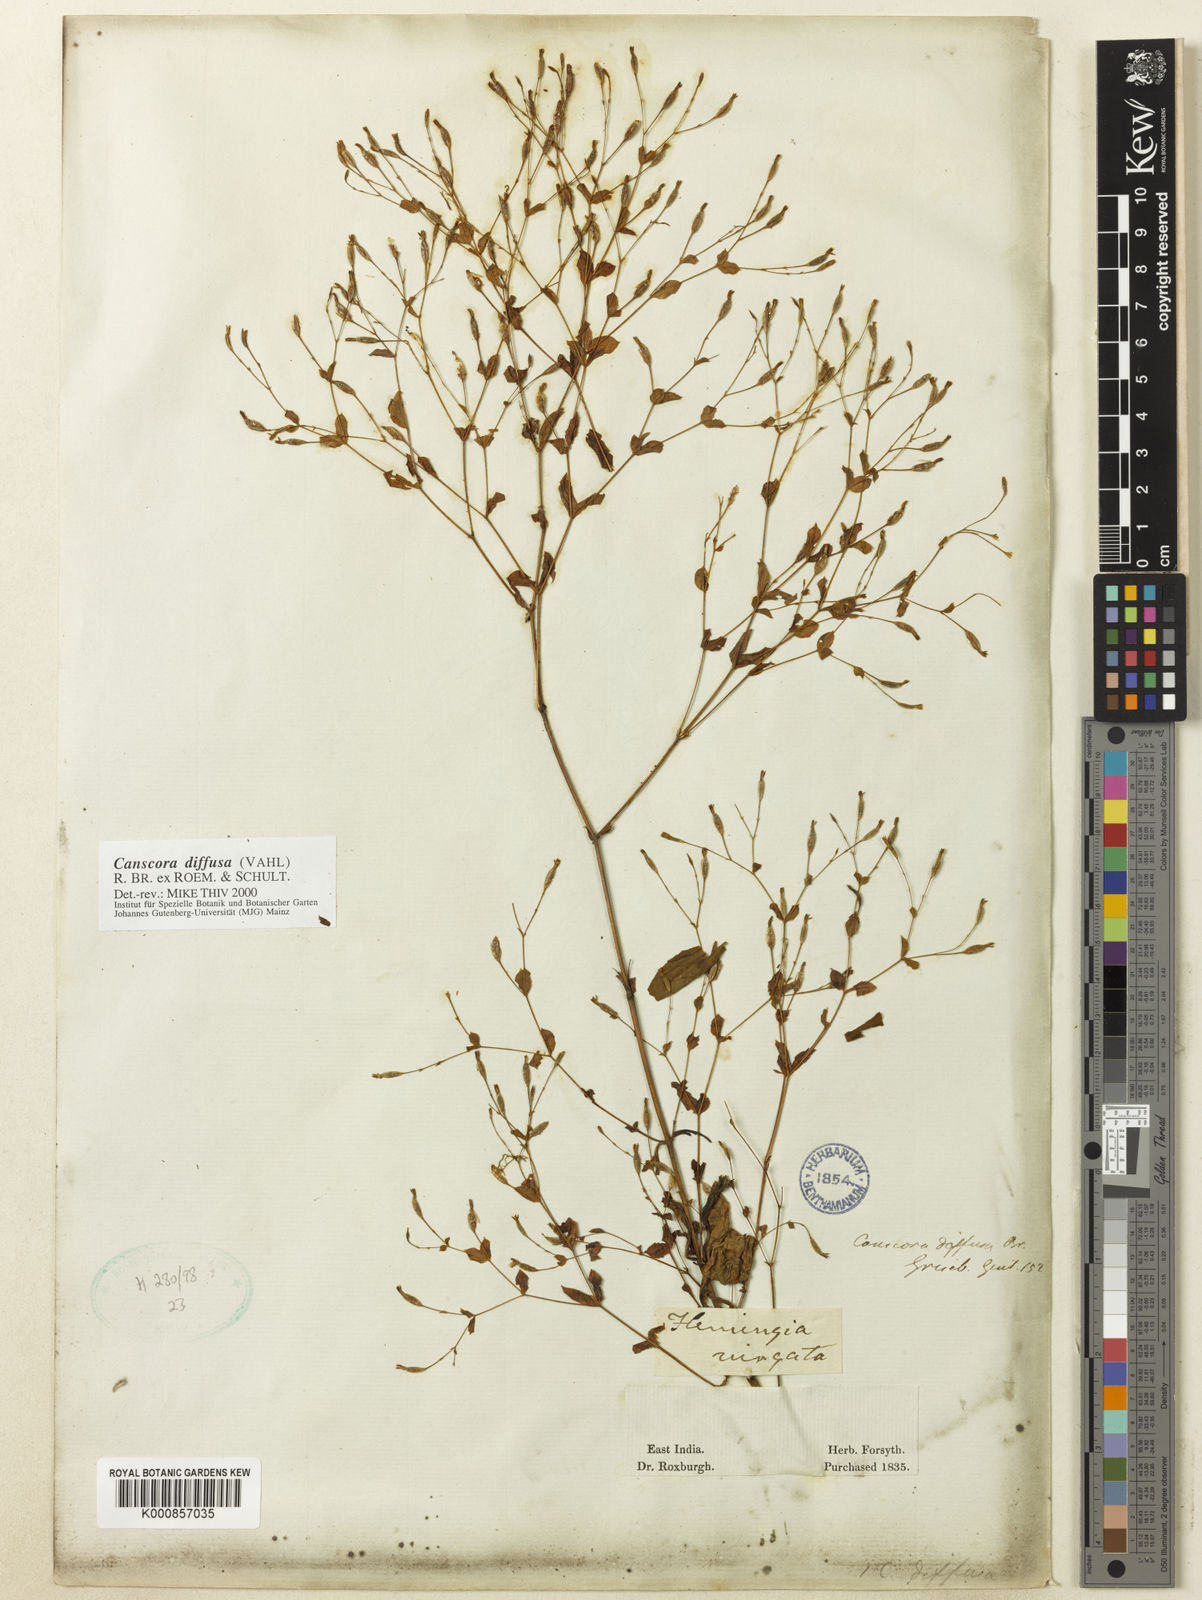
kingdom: Plantae
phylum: Tracheophyta
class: Magnoliopsida
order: Gentianales
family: Gentianaceae
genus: Canscora
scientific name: Canscora diffusa
